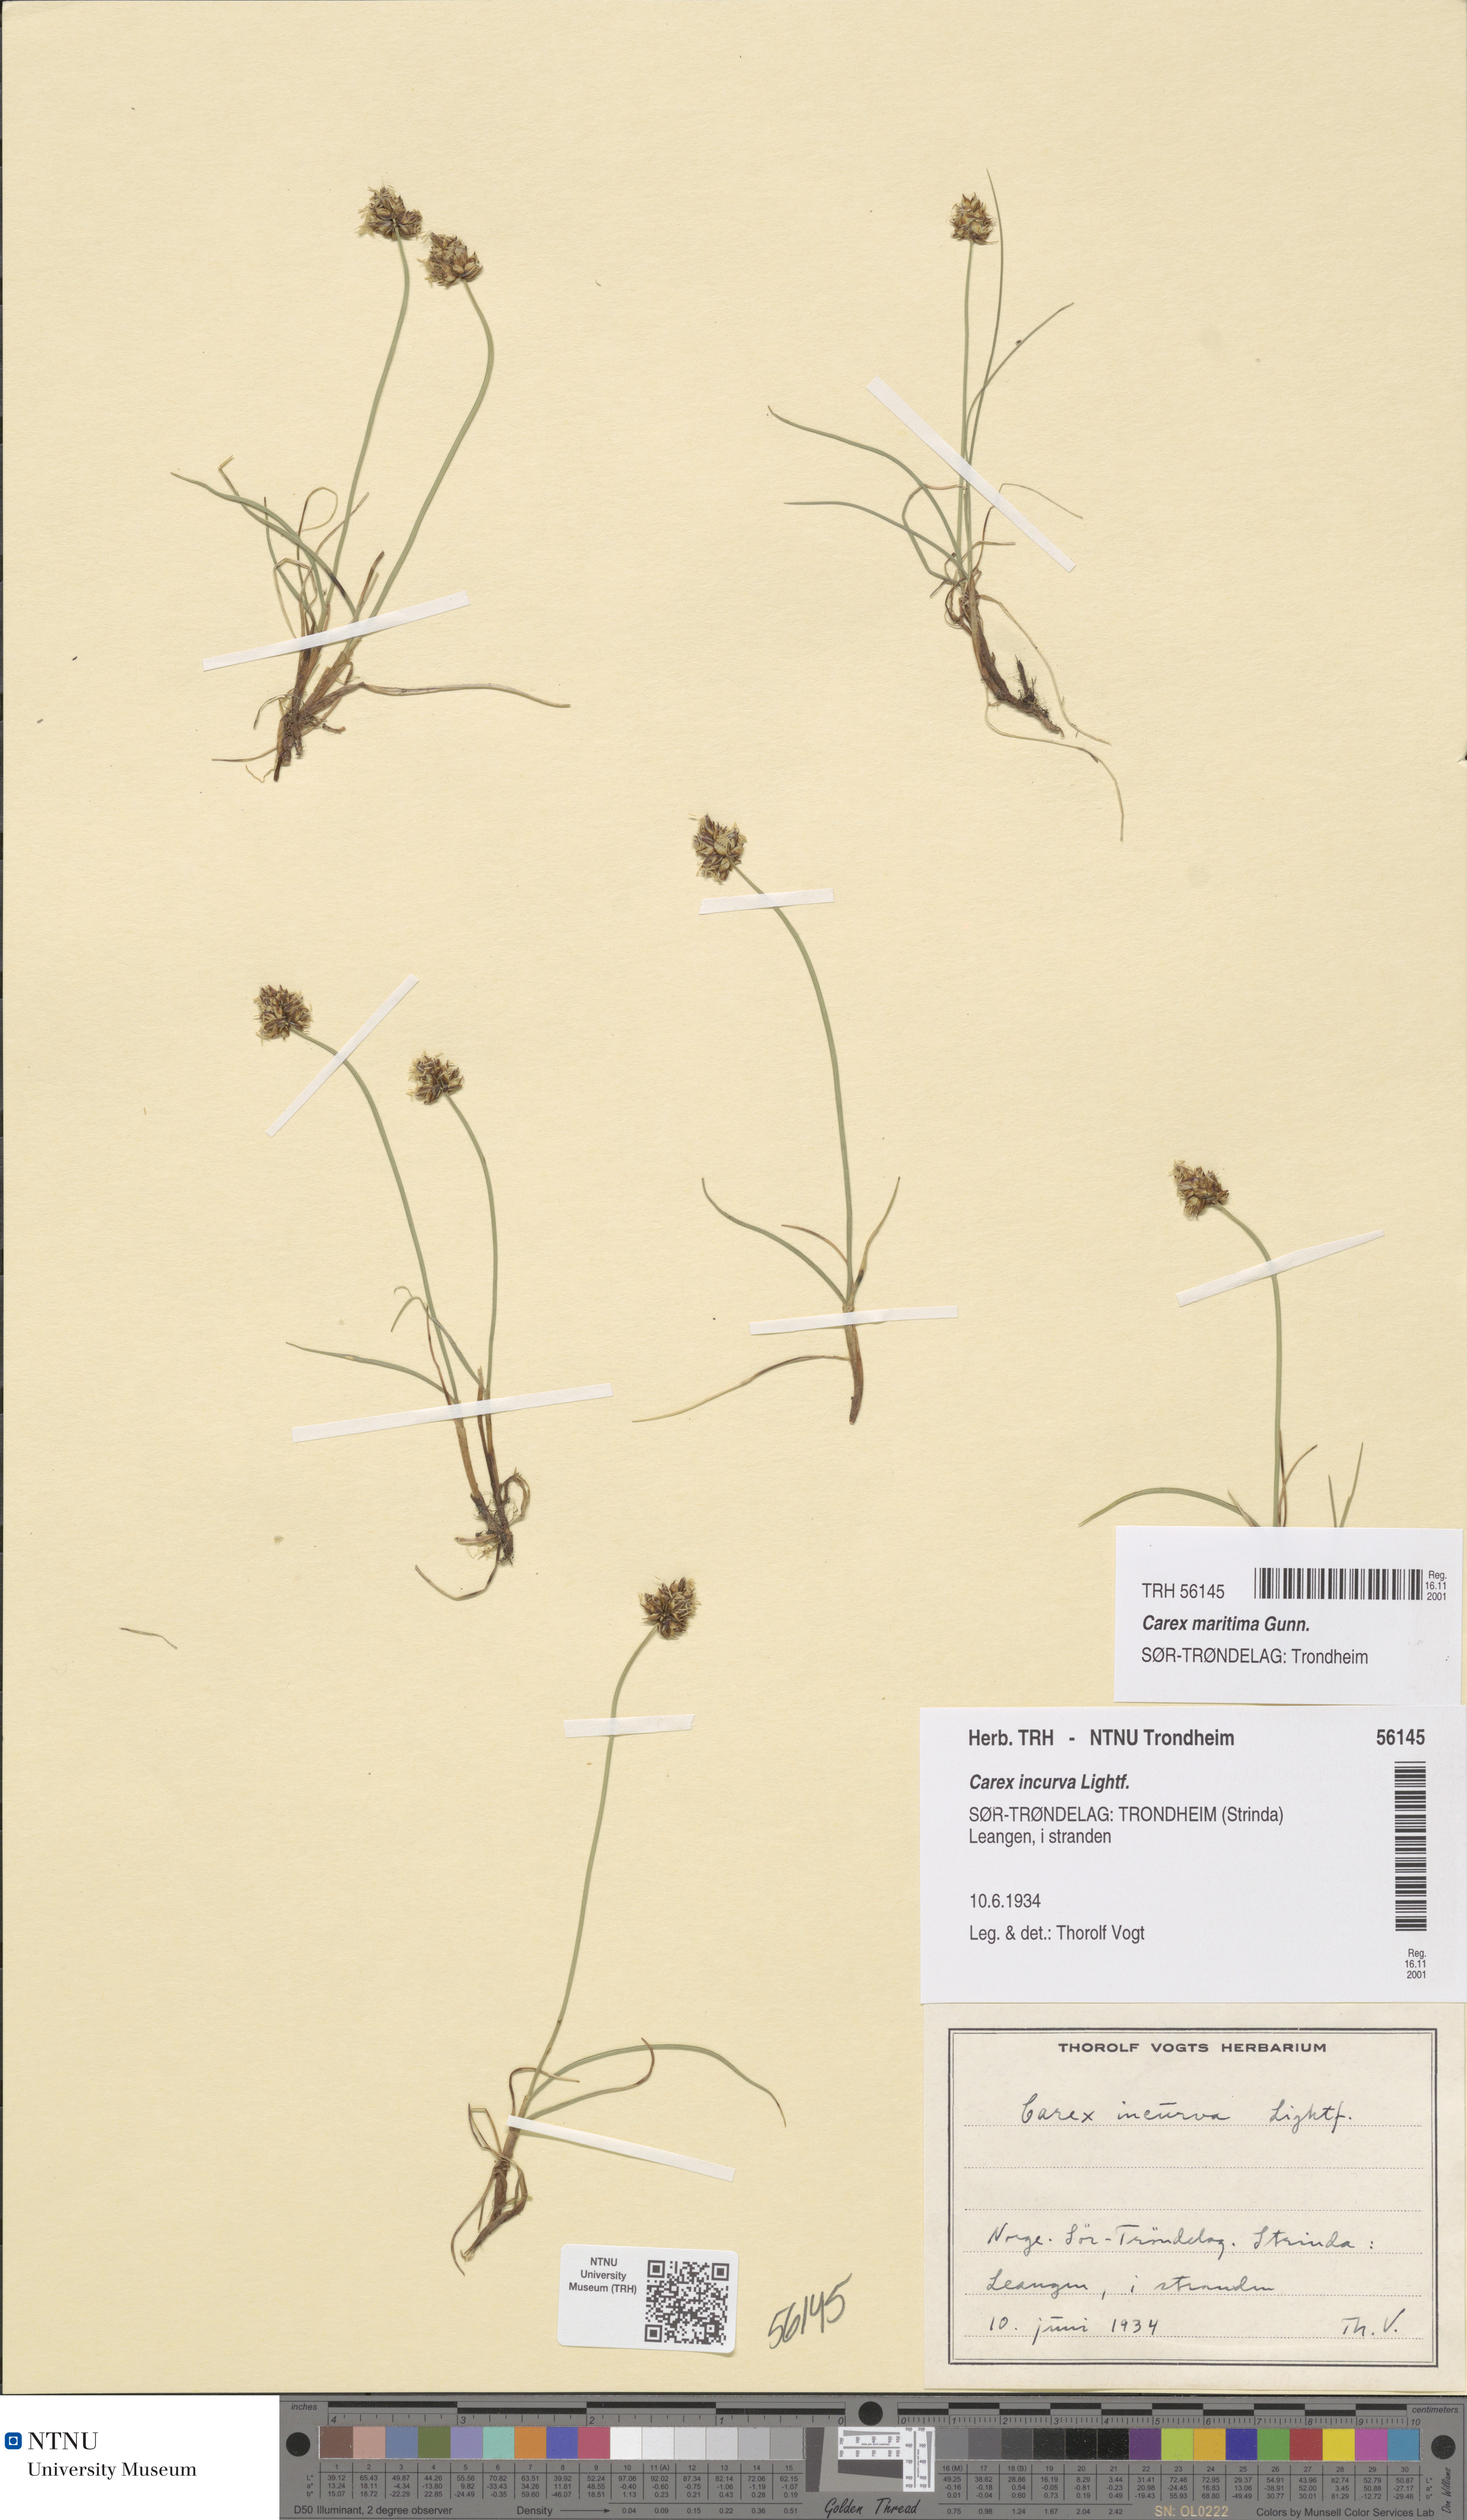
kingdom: Plantae
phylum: Tracheophyta
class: Liliopsida
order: Poales
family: Cyperaceae
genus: Carex
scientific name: Carex maritima
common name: Curved sedge
